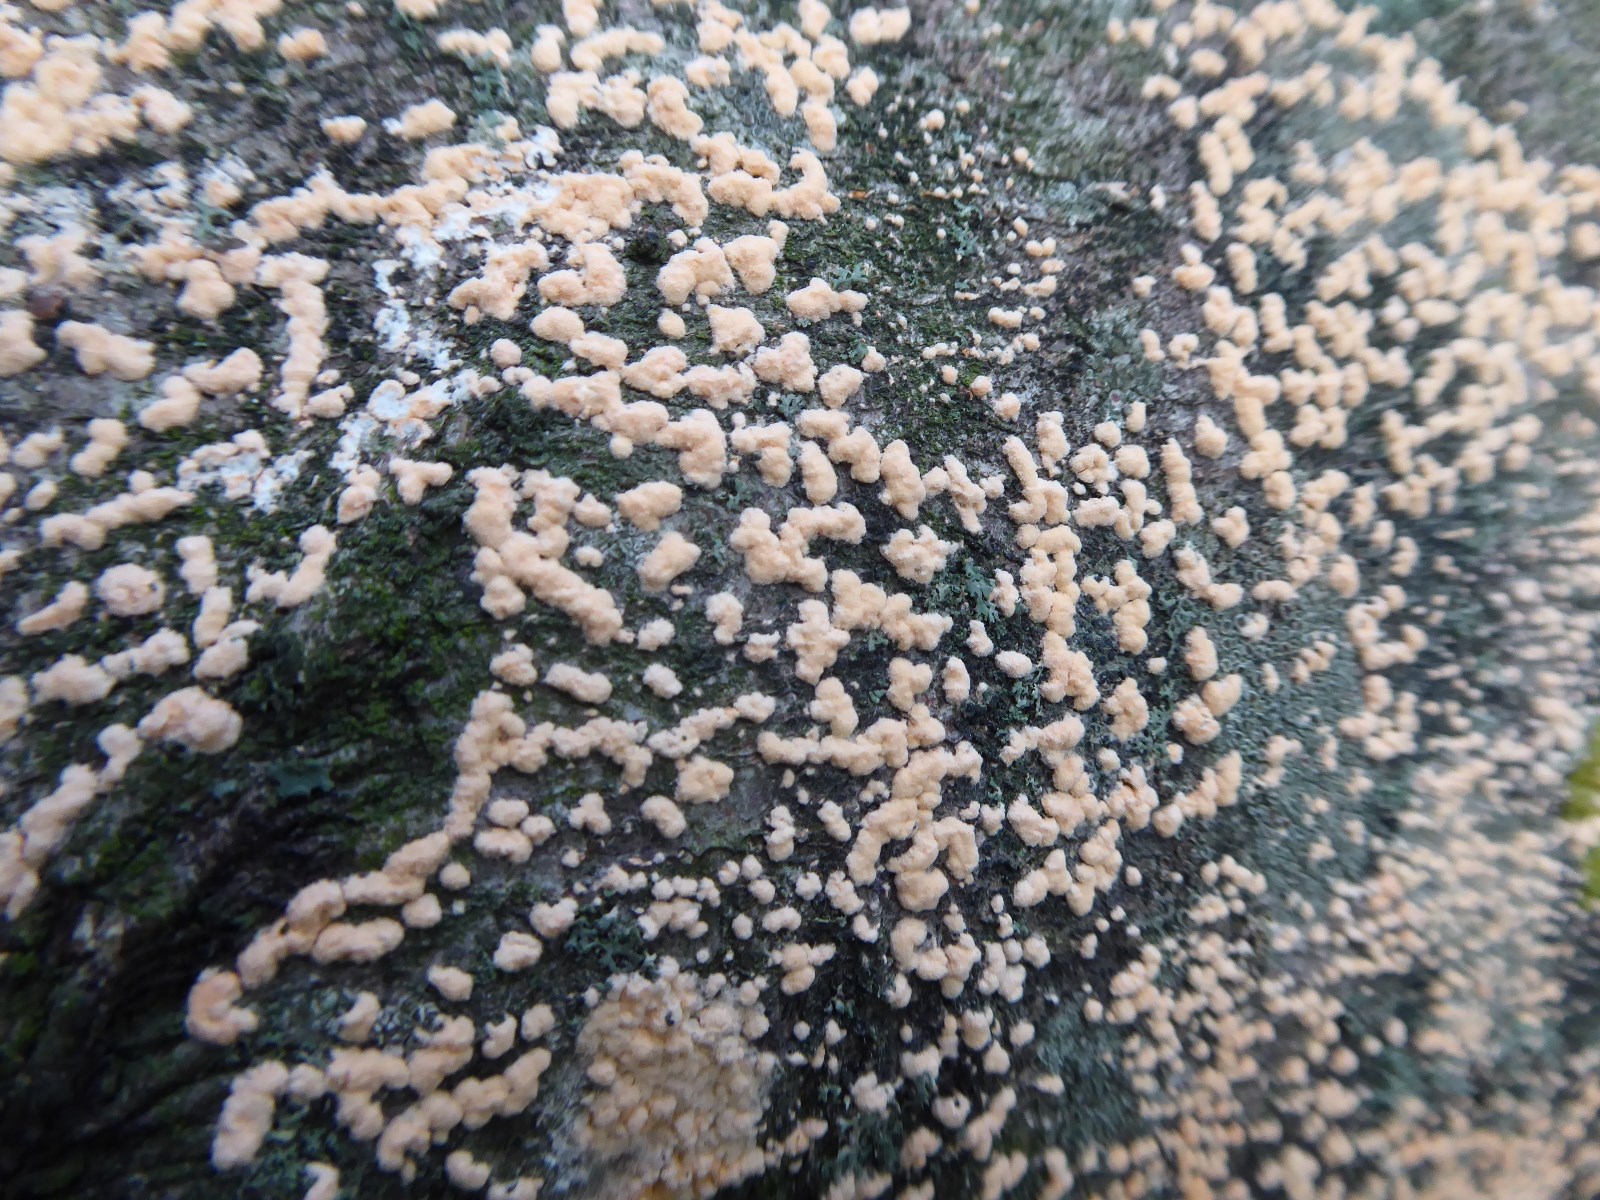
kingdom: Fungi
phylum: Ascomycota
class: Sordariomycetes
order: Hypocreales
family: Nectriaceae
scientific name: Nectriaceae
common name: cinnobersvampfamilien
